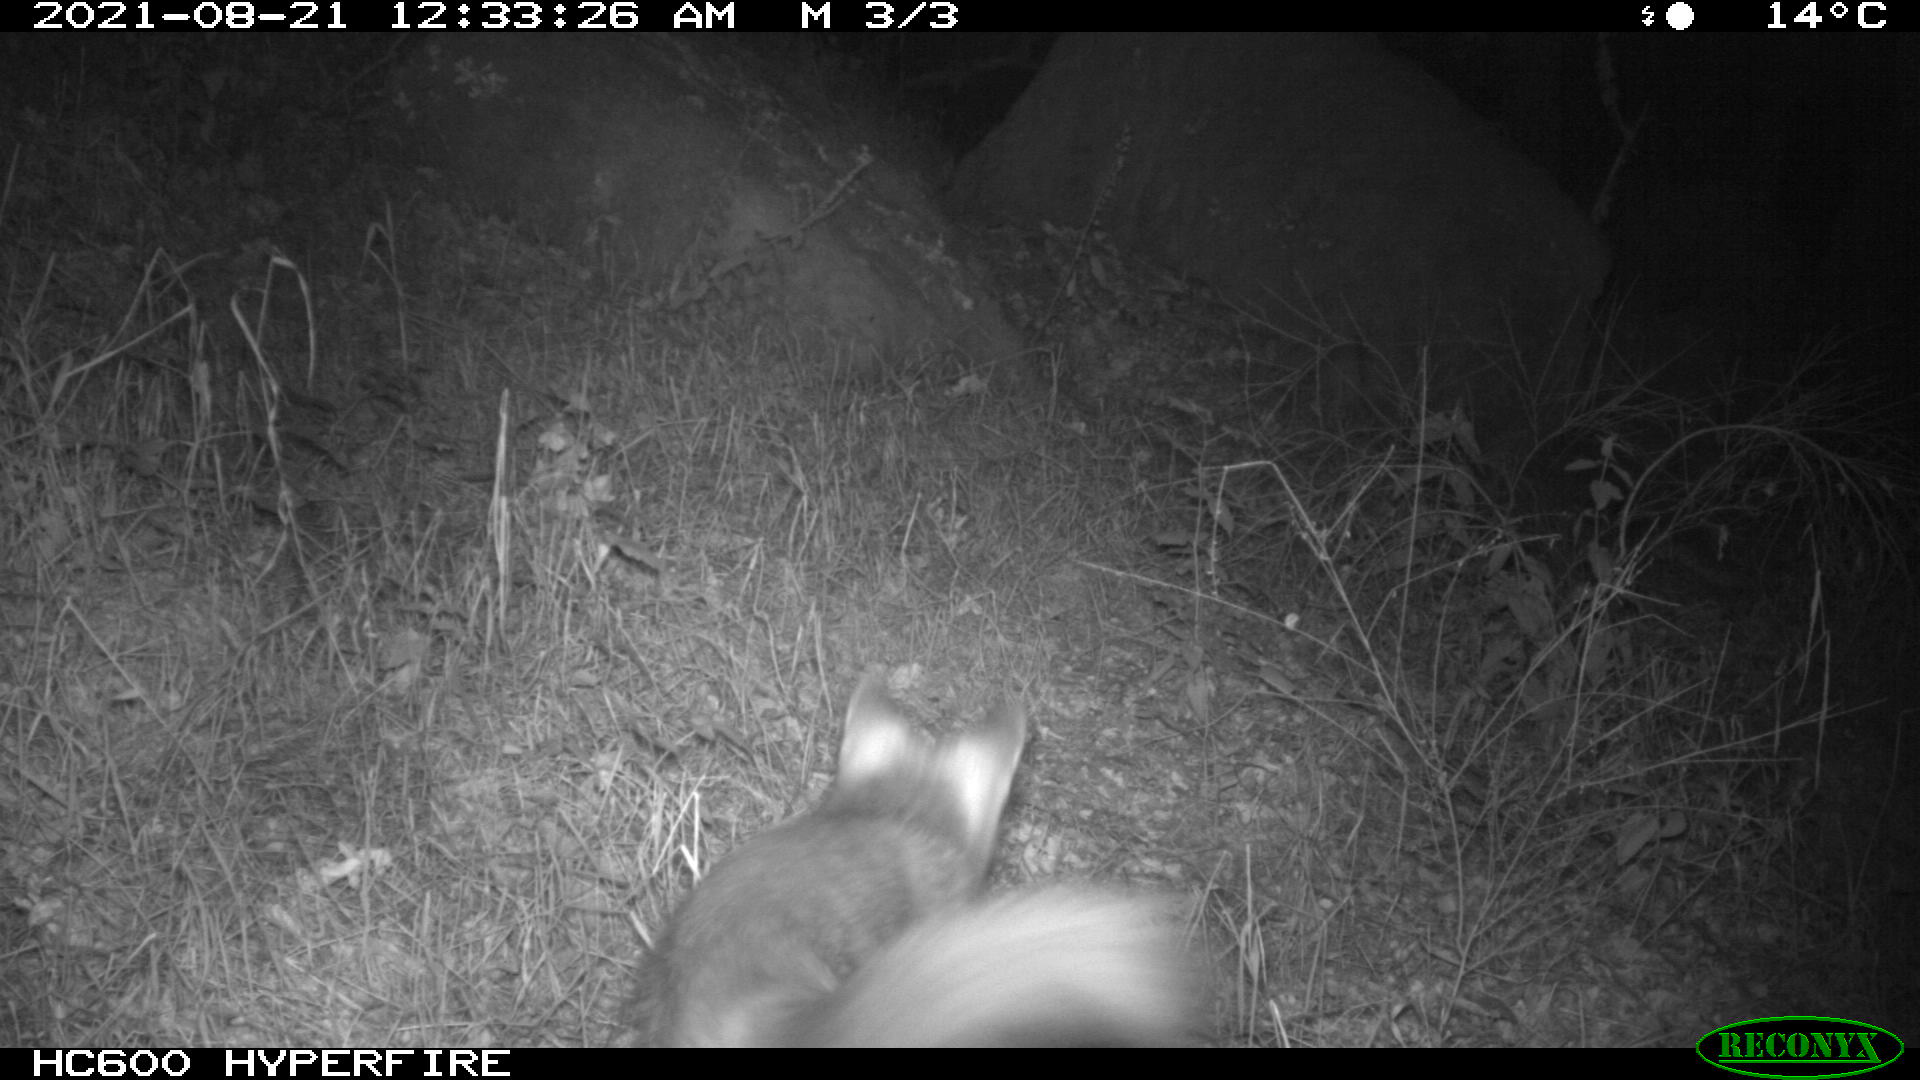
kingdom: Animalia
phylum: Chordata
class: Mammalia
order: Carnivora
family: Canidae
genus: Vulpes
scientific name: Vulpes vulpes
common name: Red fox
